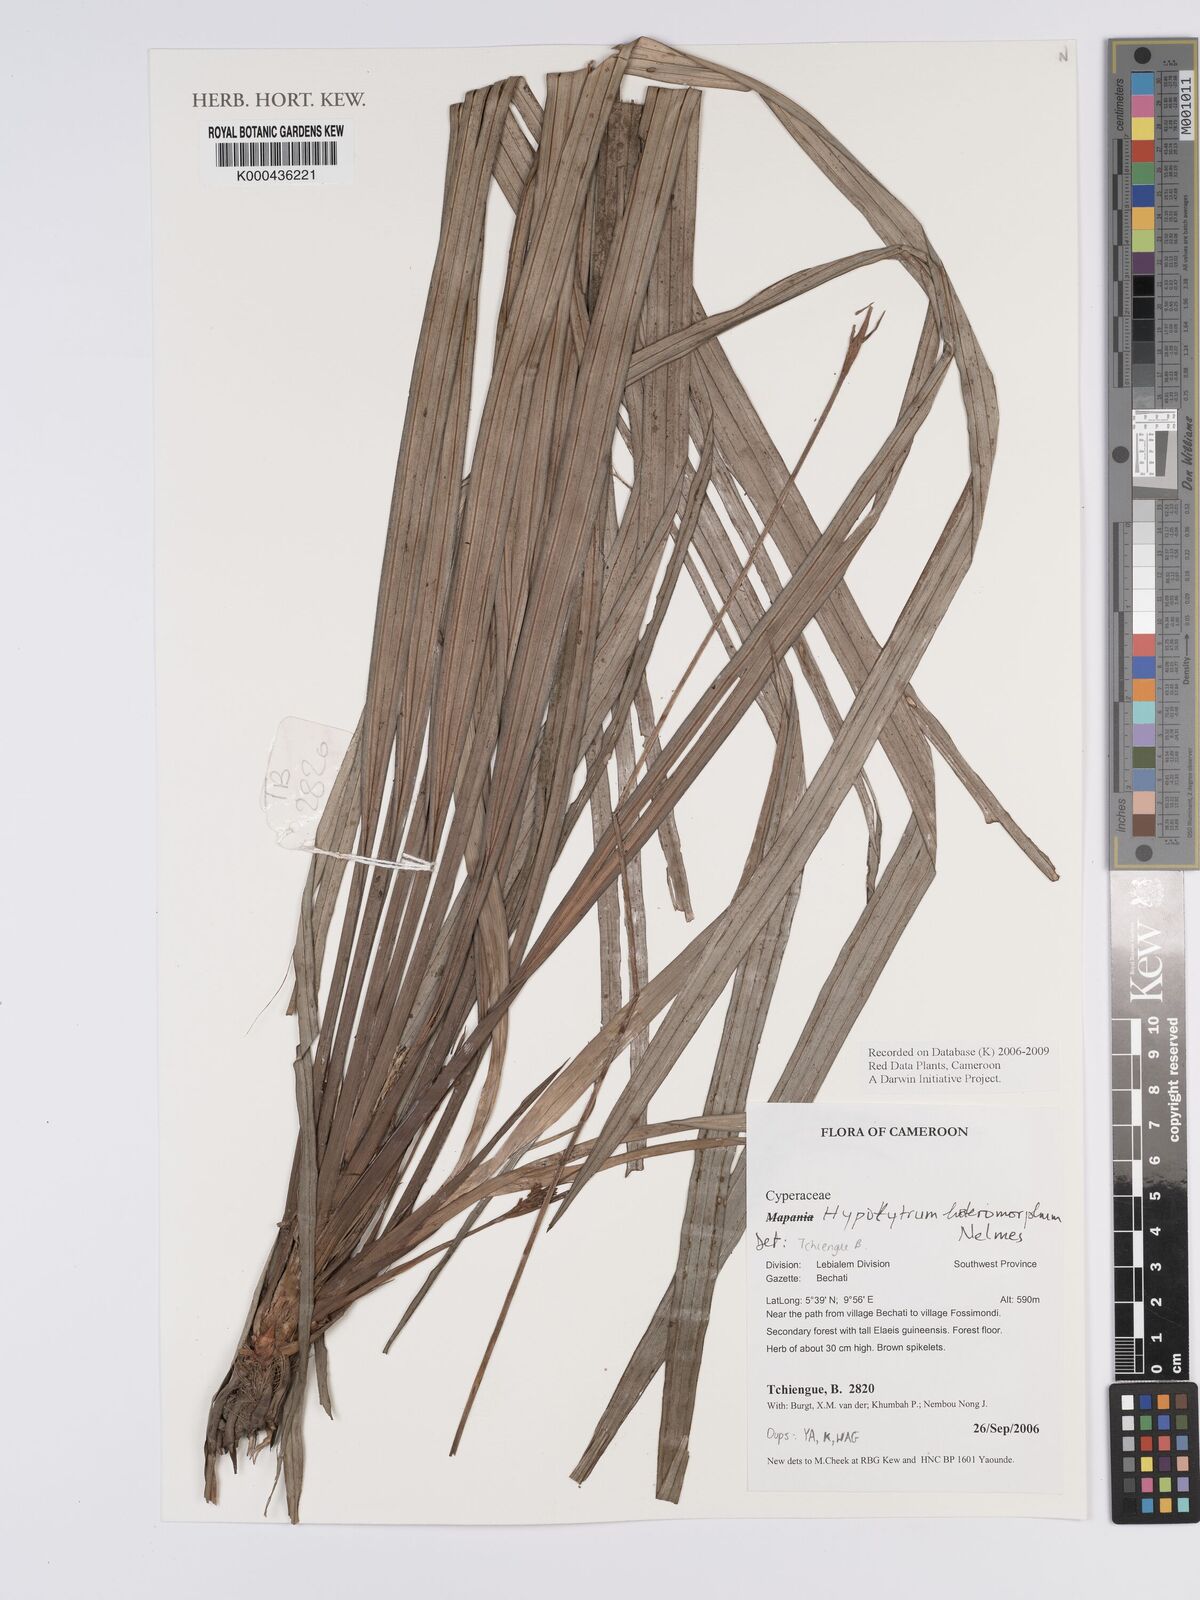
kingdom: Plantae
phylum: Tracheophyta
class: Liliopsida
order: Poales
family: Cyperaceae
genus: Hypolytrum
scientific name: Hypolytrum heteromorphum
